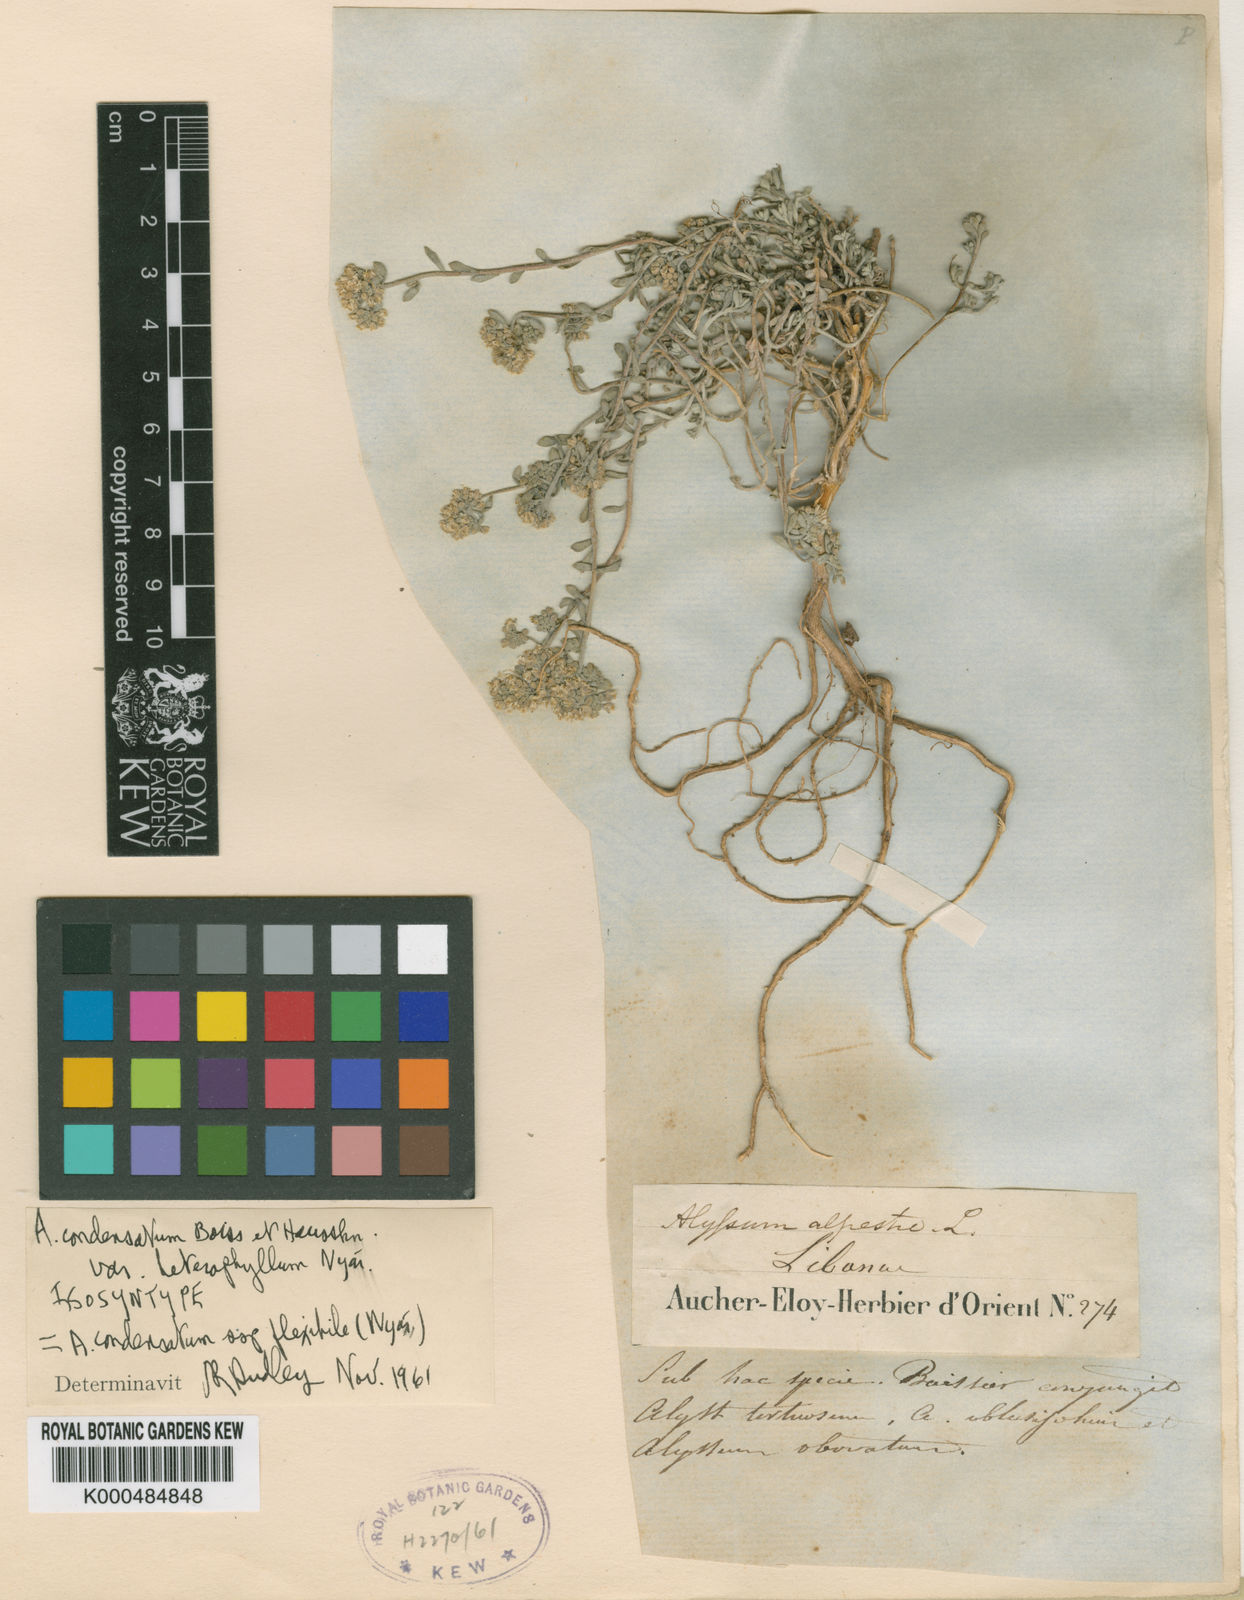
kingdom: Plantae
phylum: Tracheophyta
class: Magnoliopsida
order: Brassicales
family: Brassicaceae
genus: Odontarrhena
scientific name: Odontarrhena condensata
